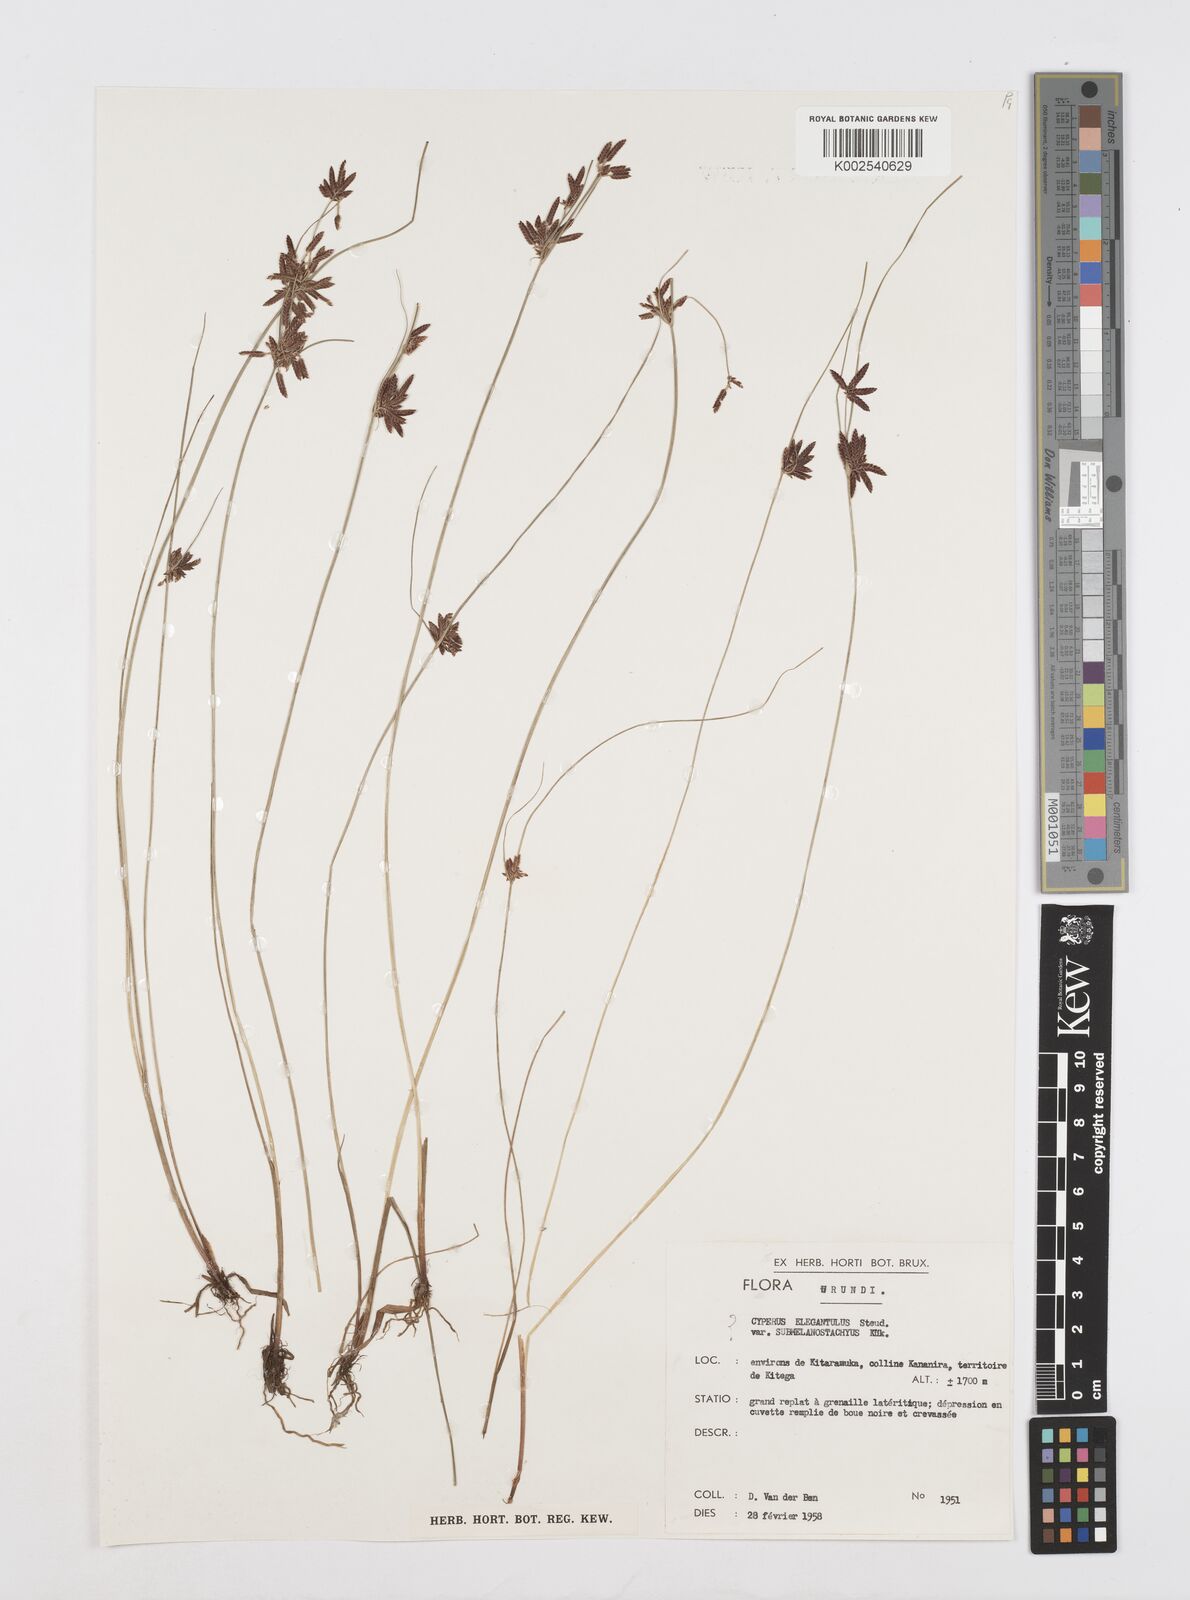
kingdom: Plantae
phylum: Tracheophyta
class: Liliopsida
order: Poales
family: Cyperaceae
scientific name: Cyperaceae
